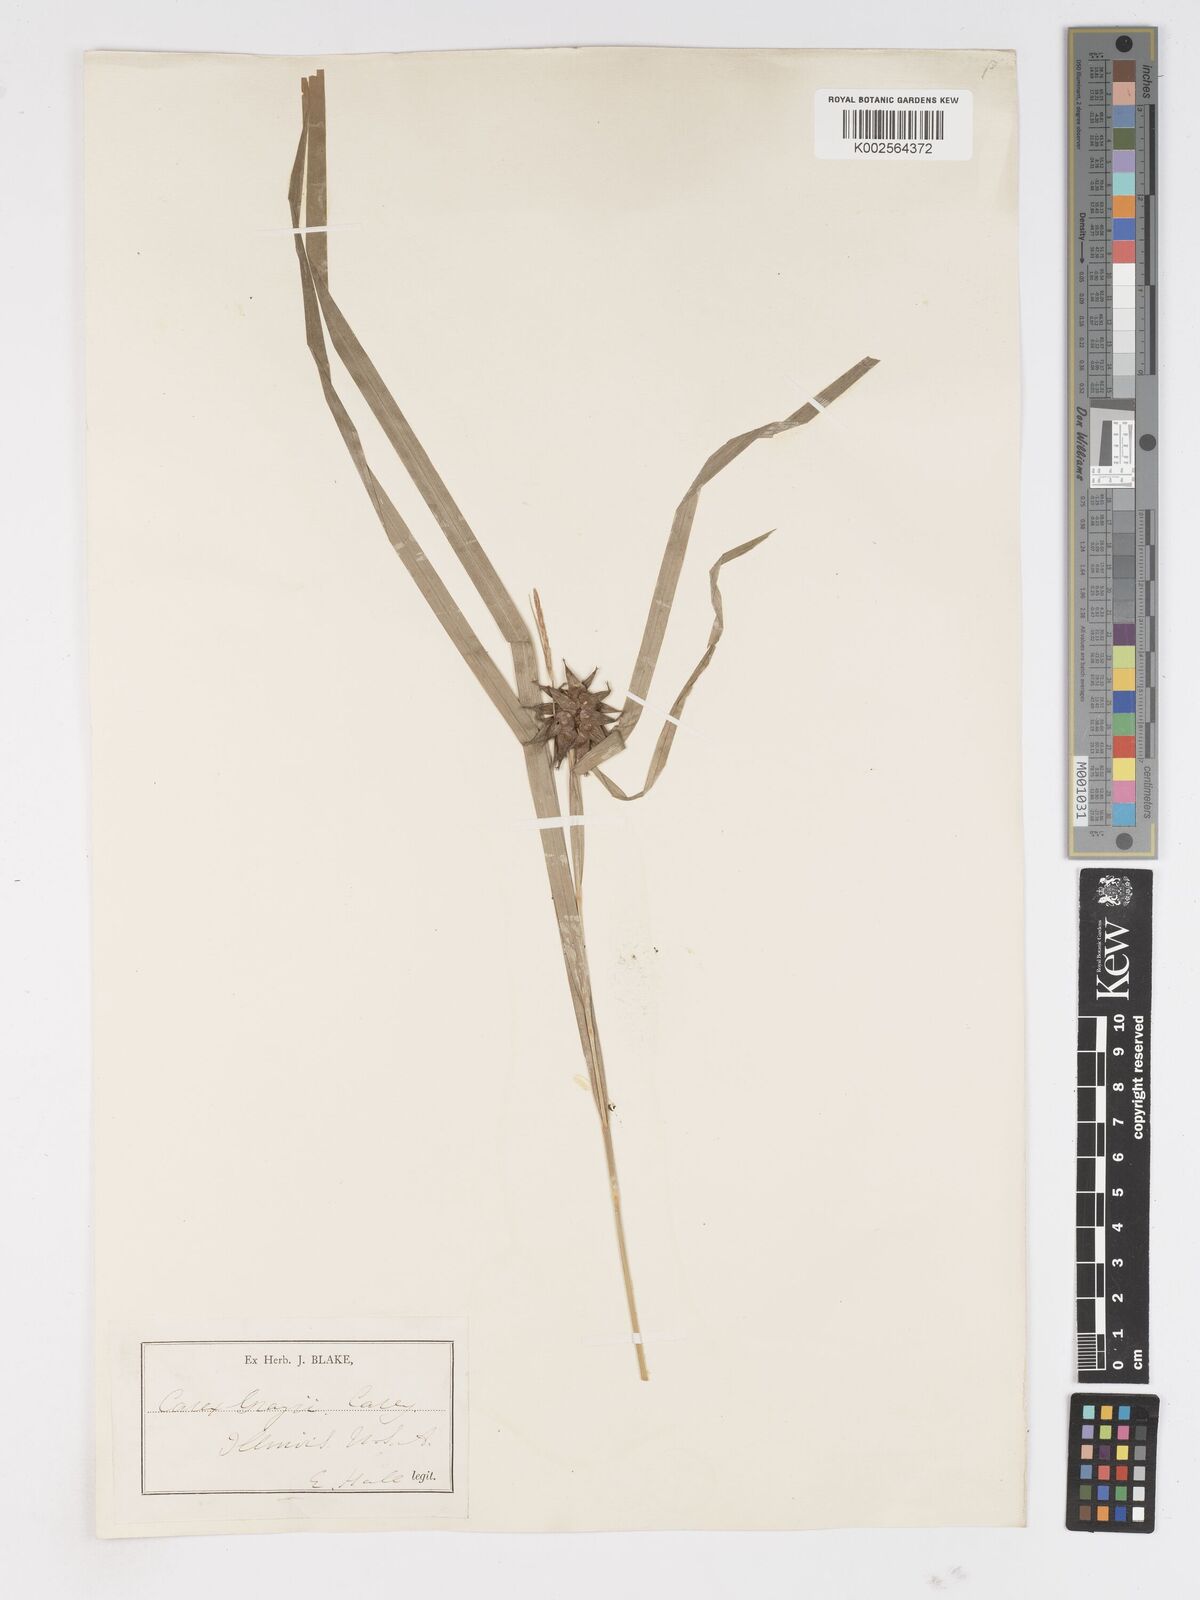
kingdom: Plantae
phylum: Tracheophyta
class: Liliopsida
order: Poales
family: Cyperaceae
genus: Carex
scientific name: Carex grayi
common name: Asa gray's sedge
